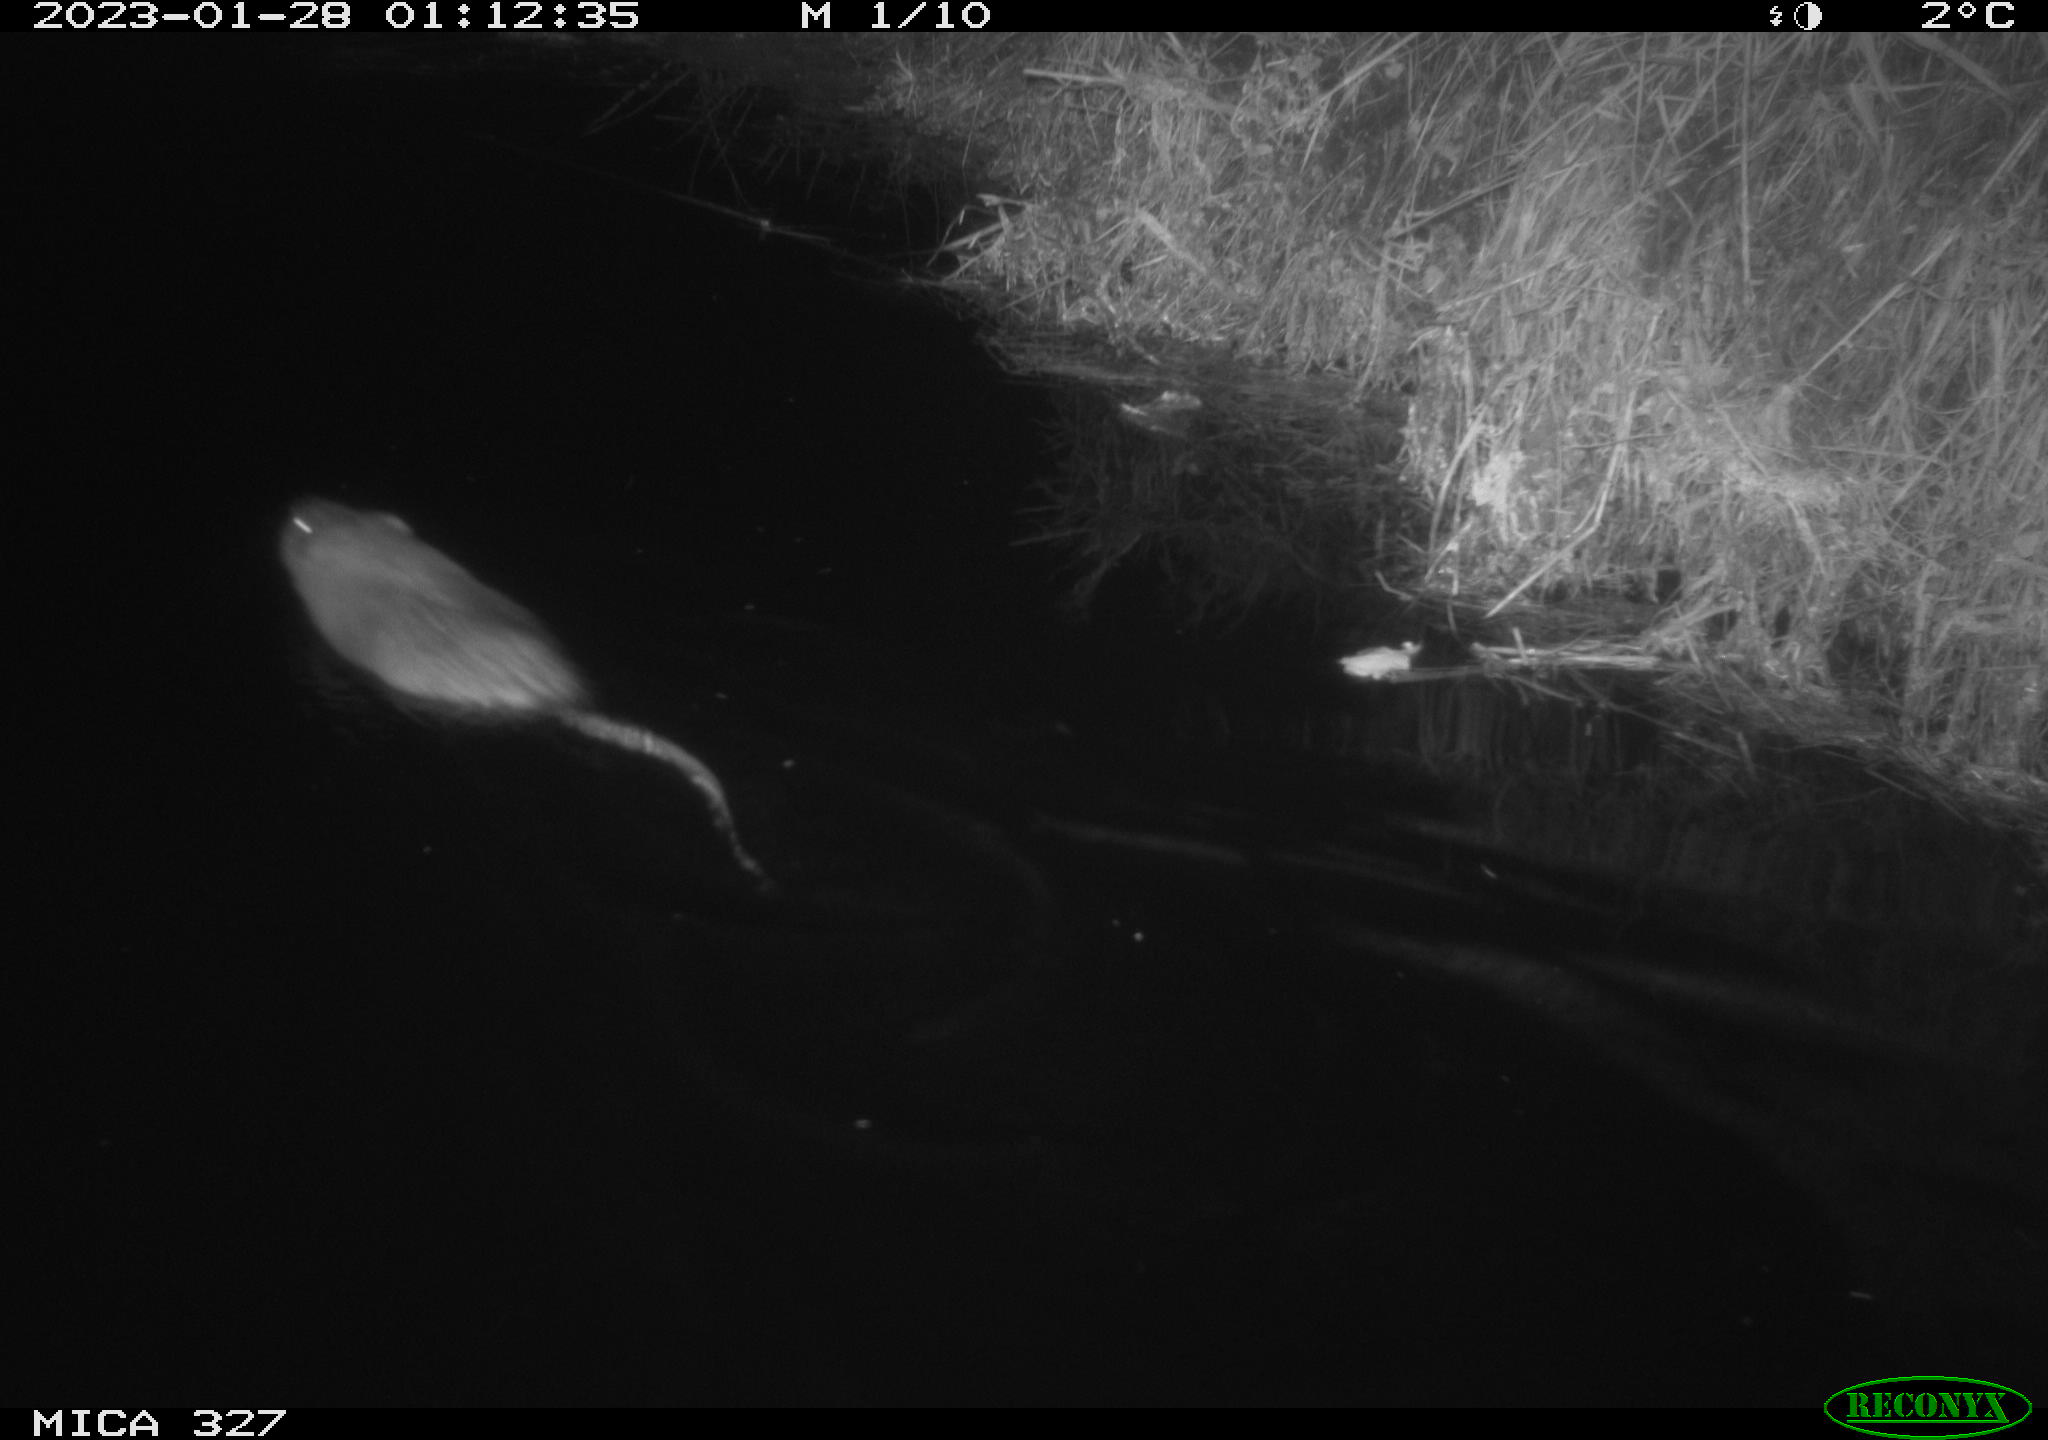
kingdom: Animalia
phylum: Chordata
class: Mammalia
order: Rodentia
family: Cricetidae
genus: Ondatra
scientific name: Ondatra zibethicus
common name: Muskrat
